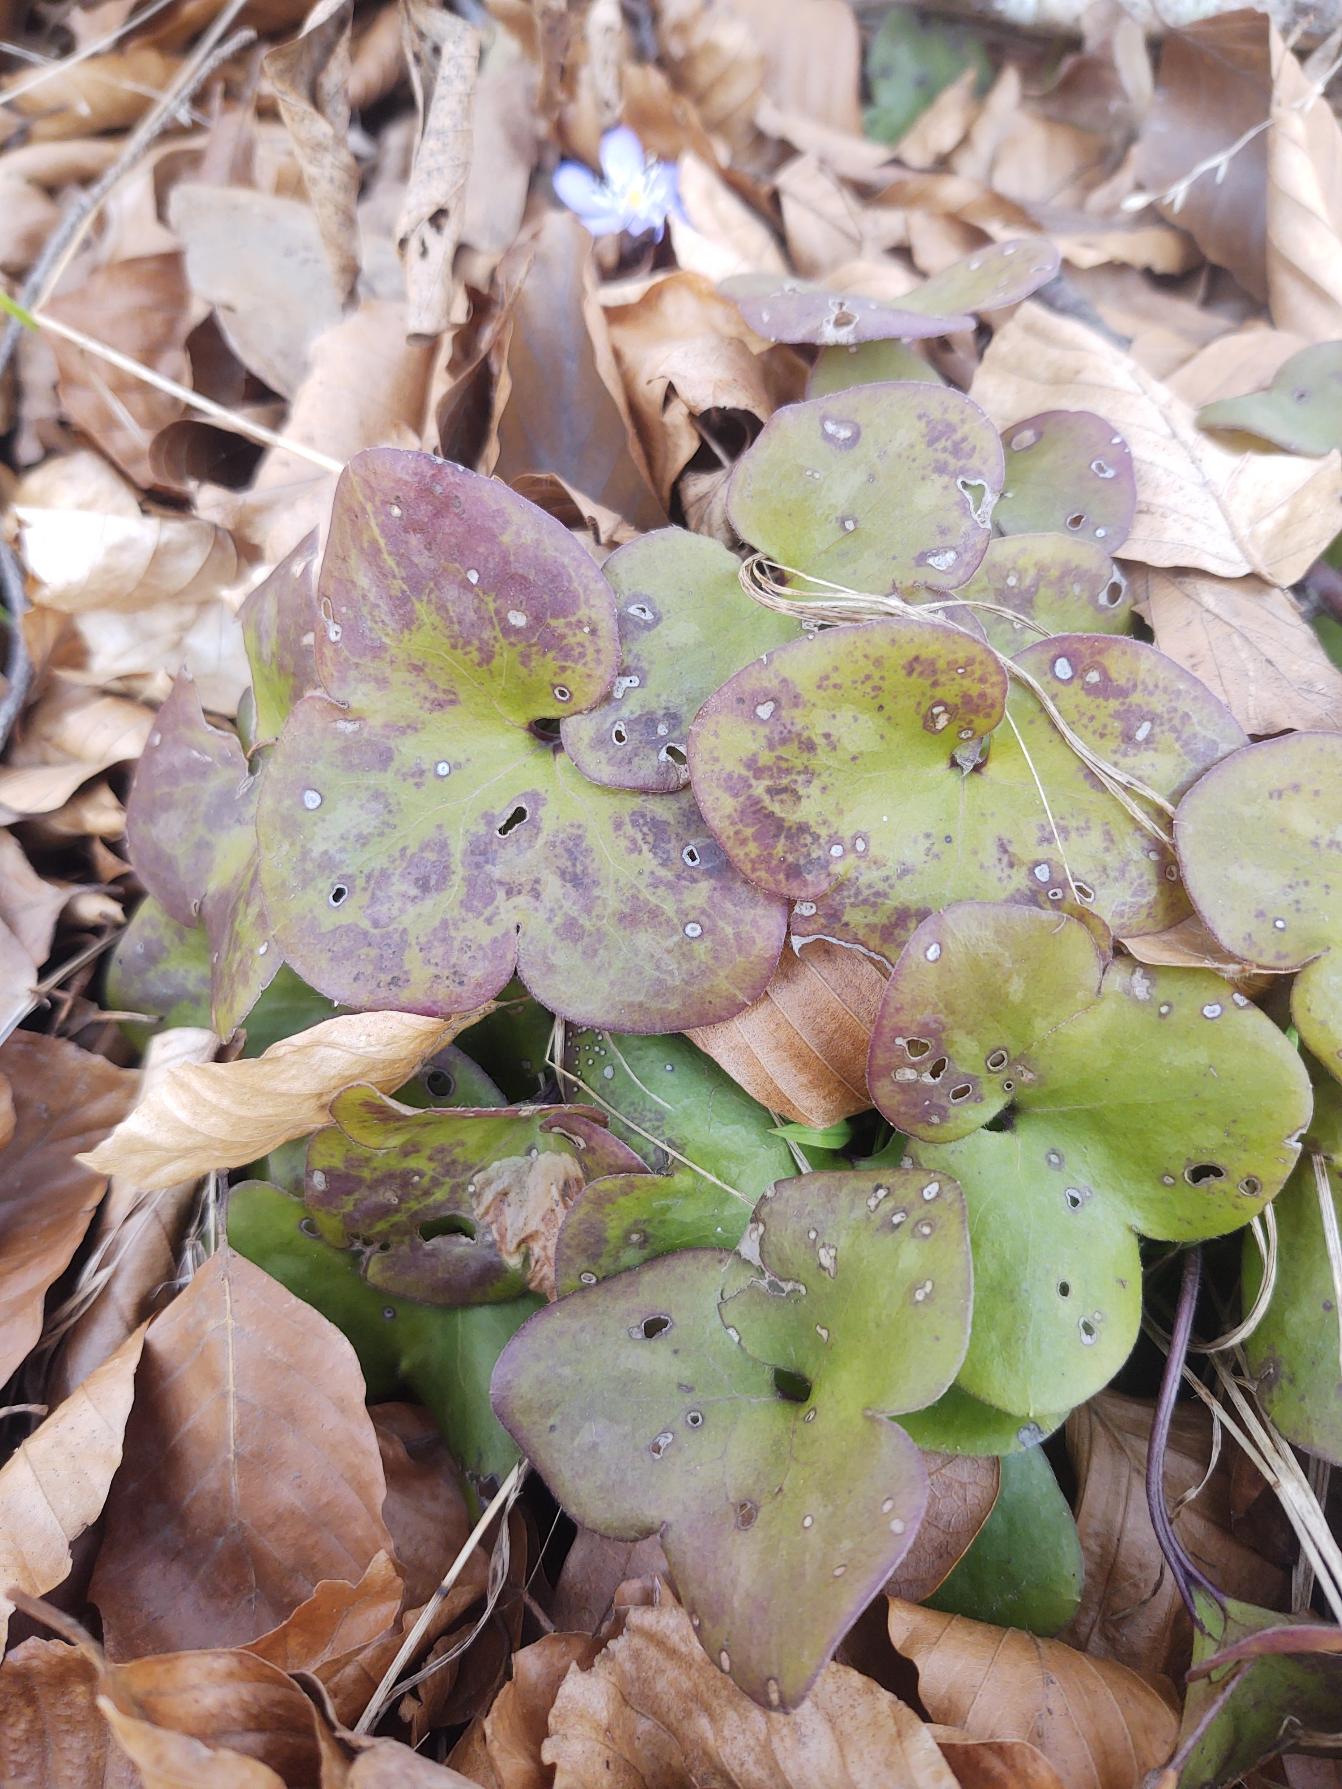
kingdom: Plantae
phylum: Tracheophyta
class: Magnoliopsida
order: Ranunculales
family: Ranunculaceae
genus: Hepatica
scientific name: Hepatica nobilis
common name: Blå anemone
